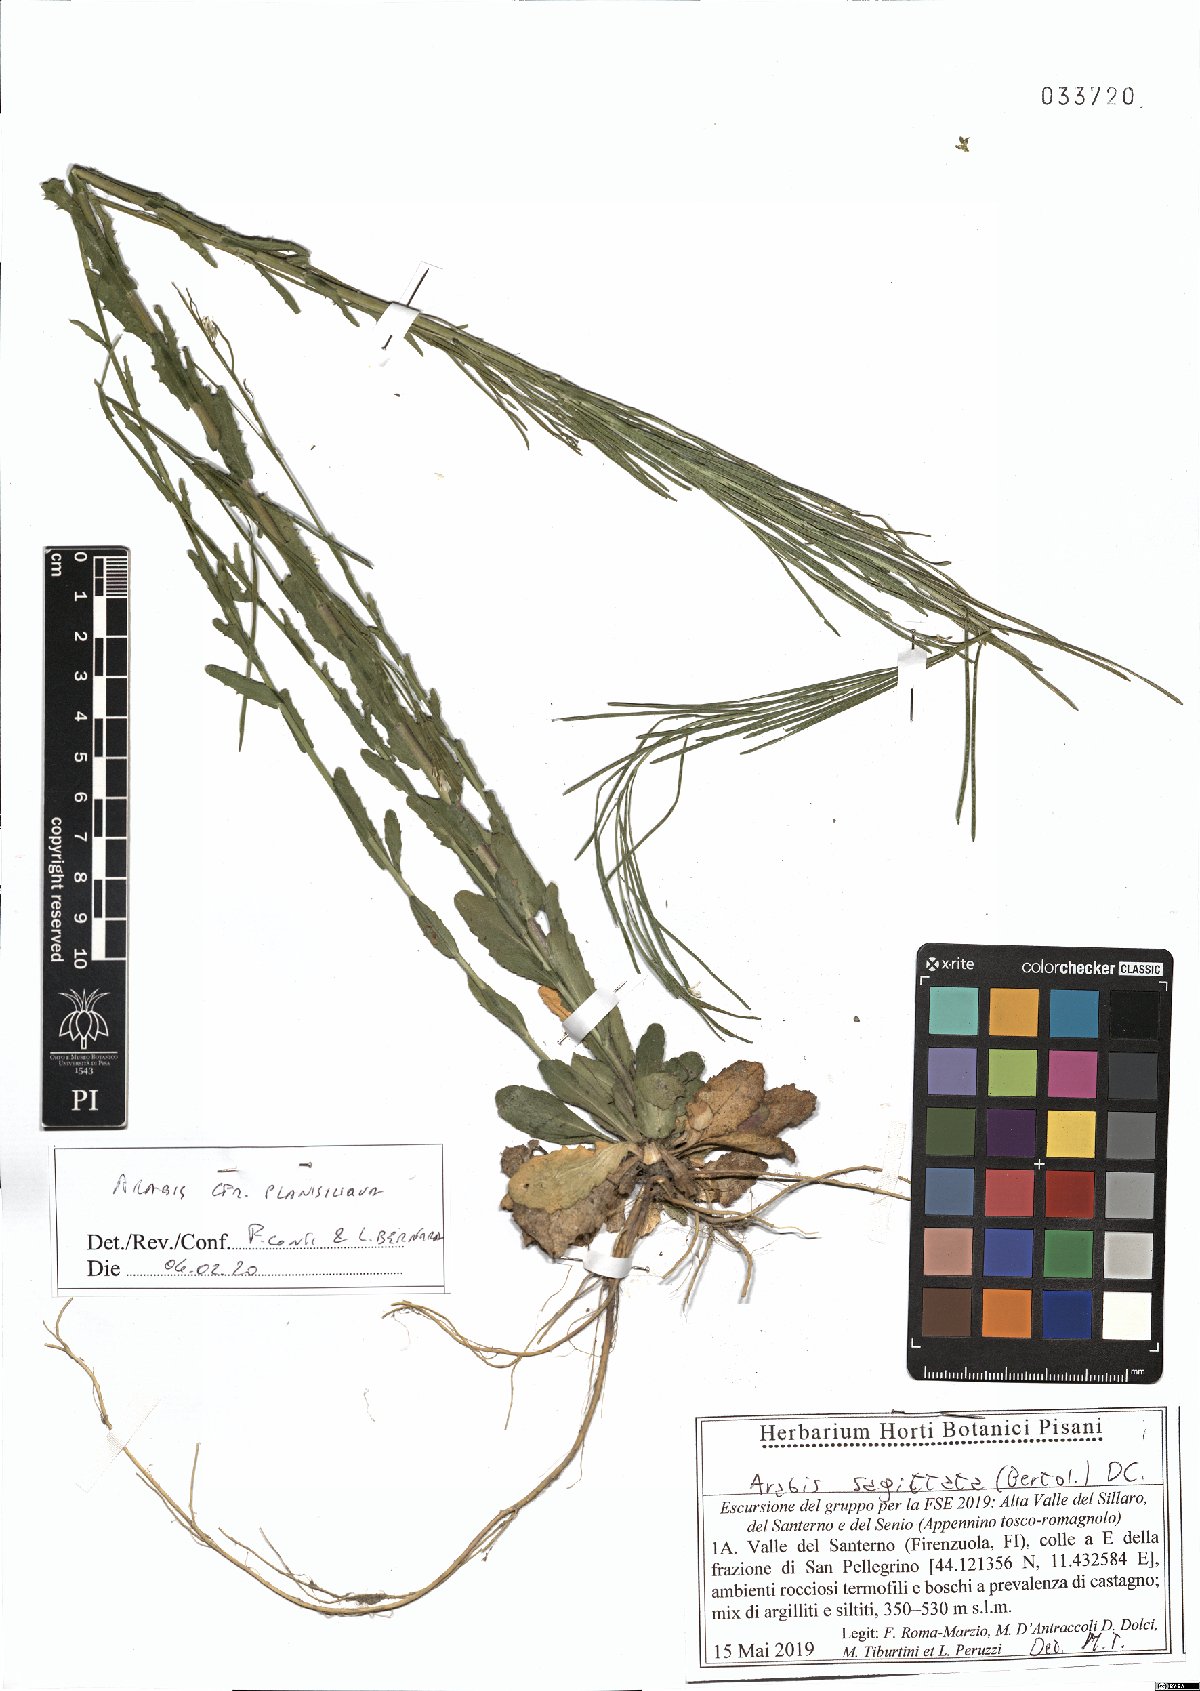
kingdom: Plantae
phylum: Tracheophyta
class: Magnoliopsida
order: Brassicales
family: Brassicaceae
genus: Arabis
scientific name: Arabis planisiliqua
